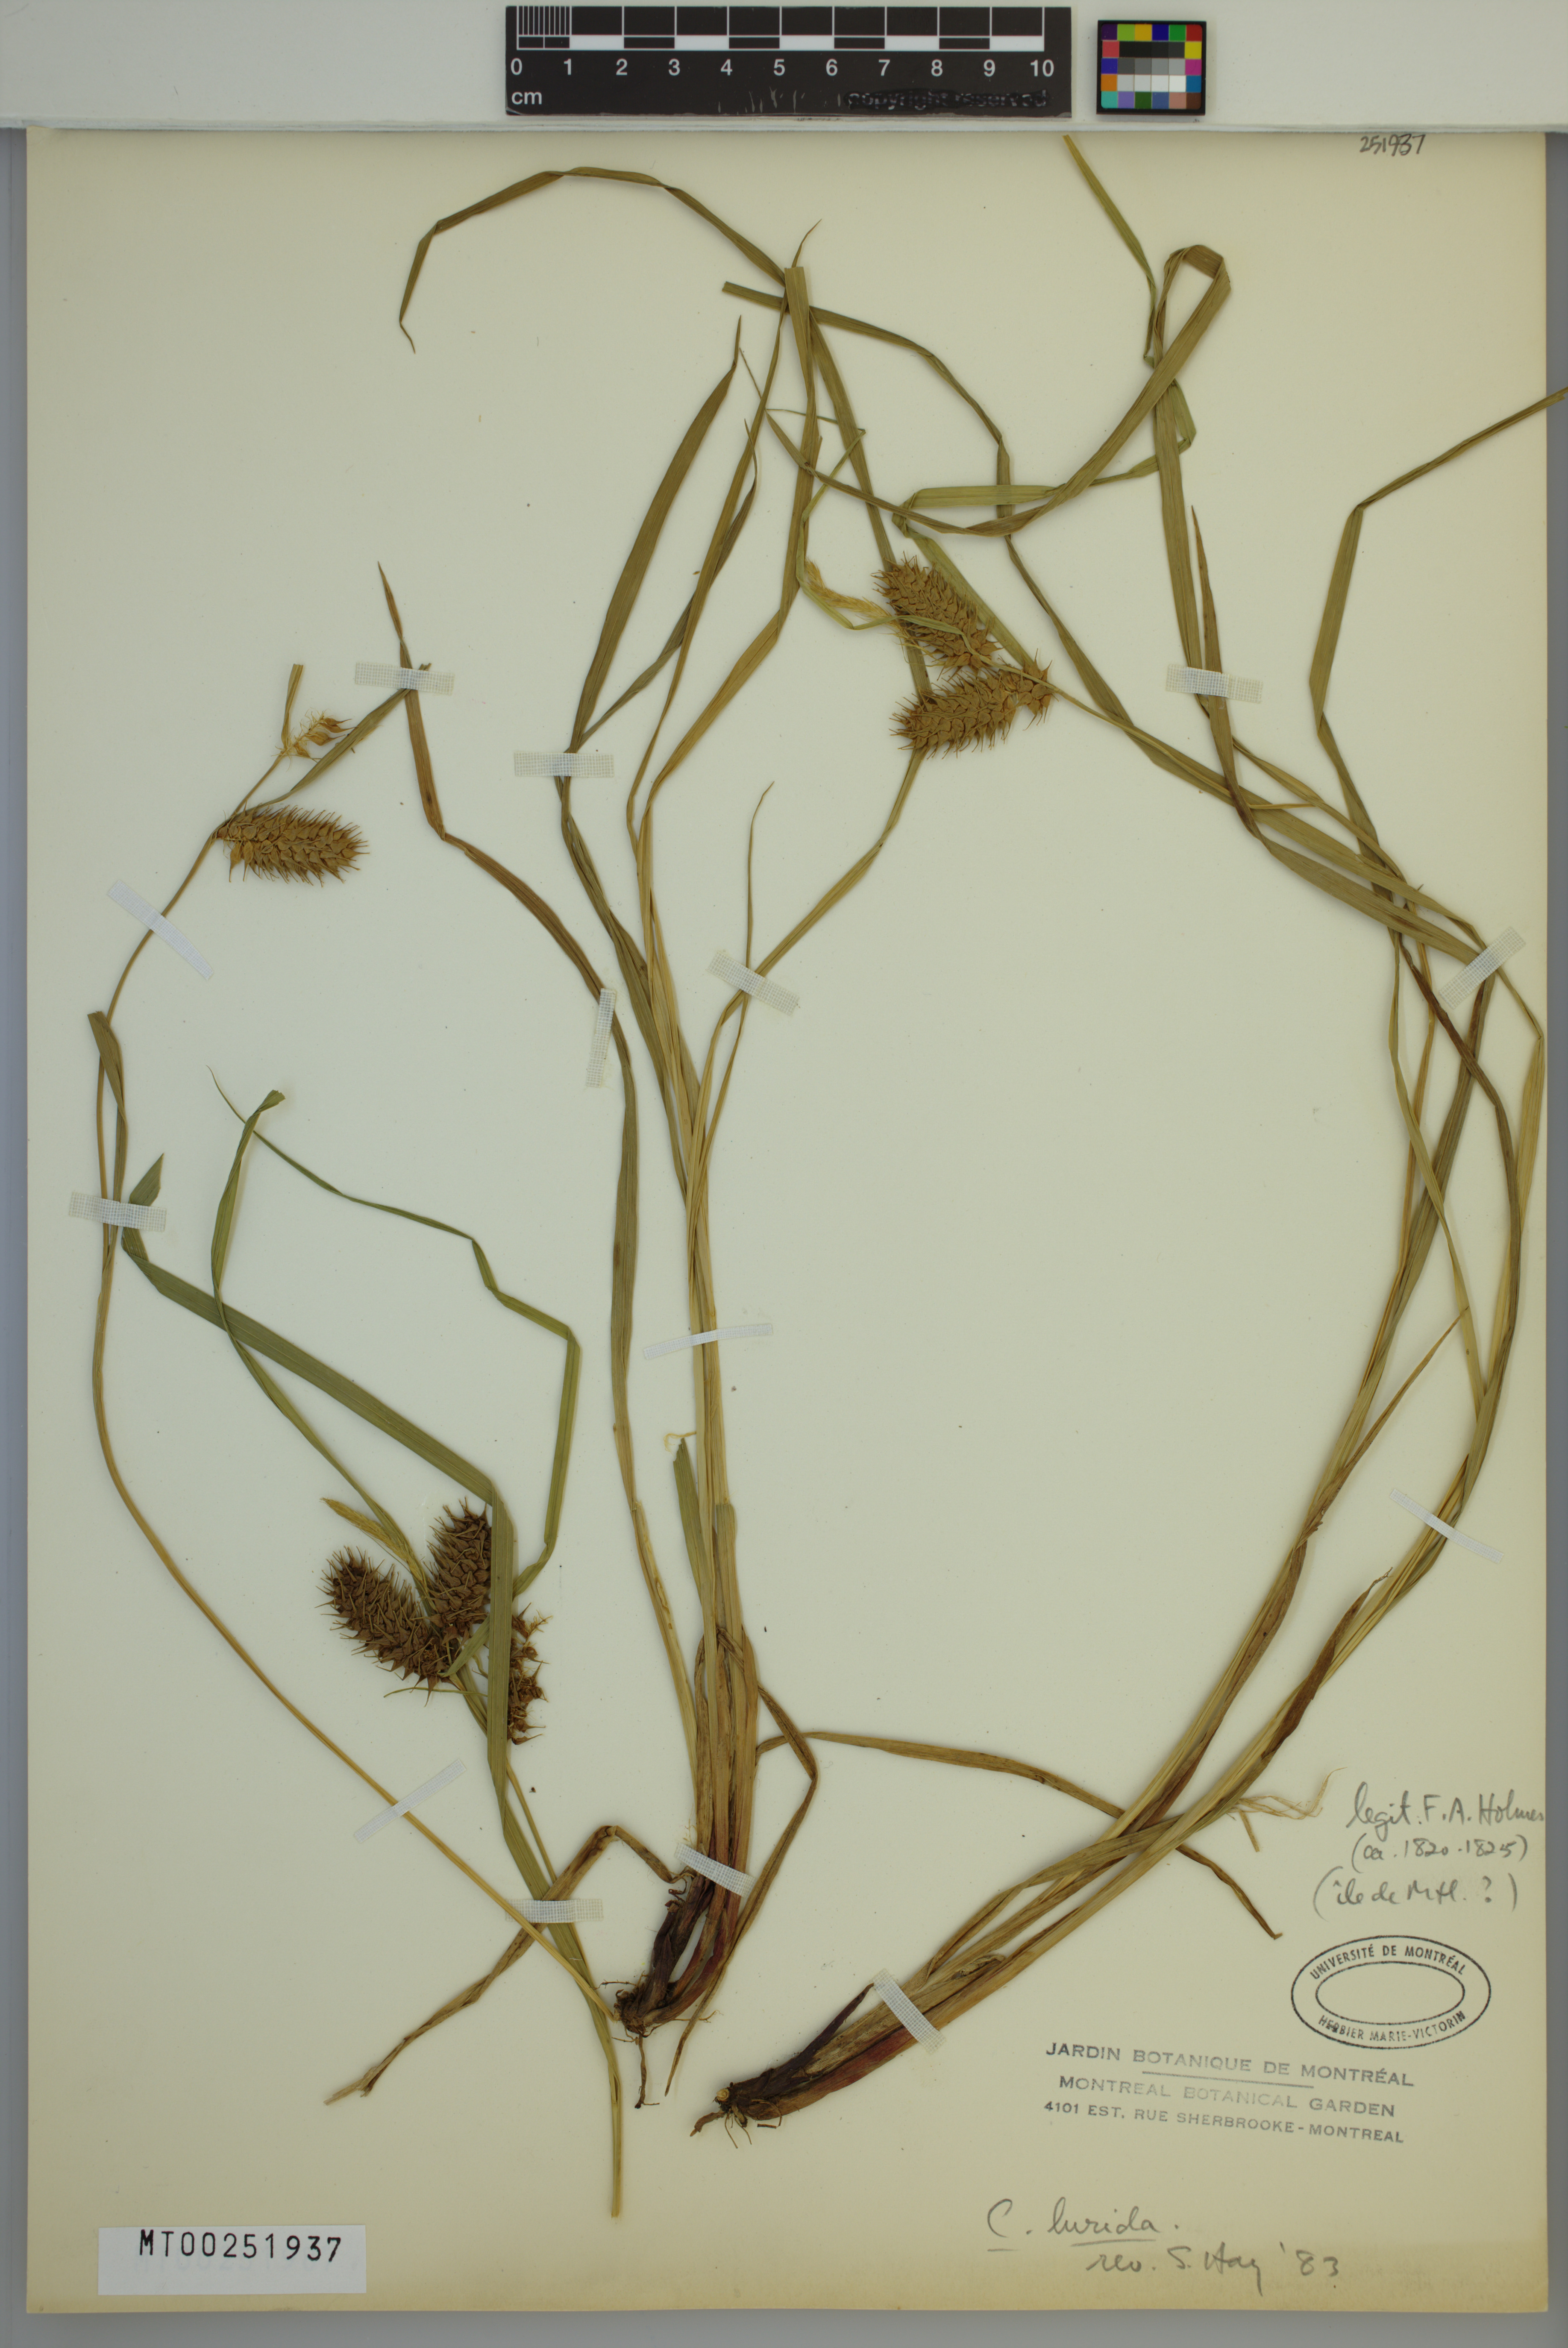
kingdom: Plantae
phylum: Tracheophyta
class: Liliopsida
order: Poales
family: Cyperaceae
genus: Carex
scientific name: Carex lurida
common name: Sallow sedge
